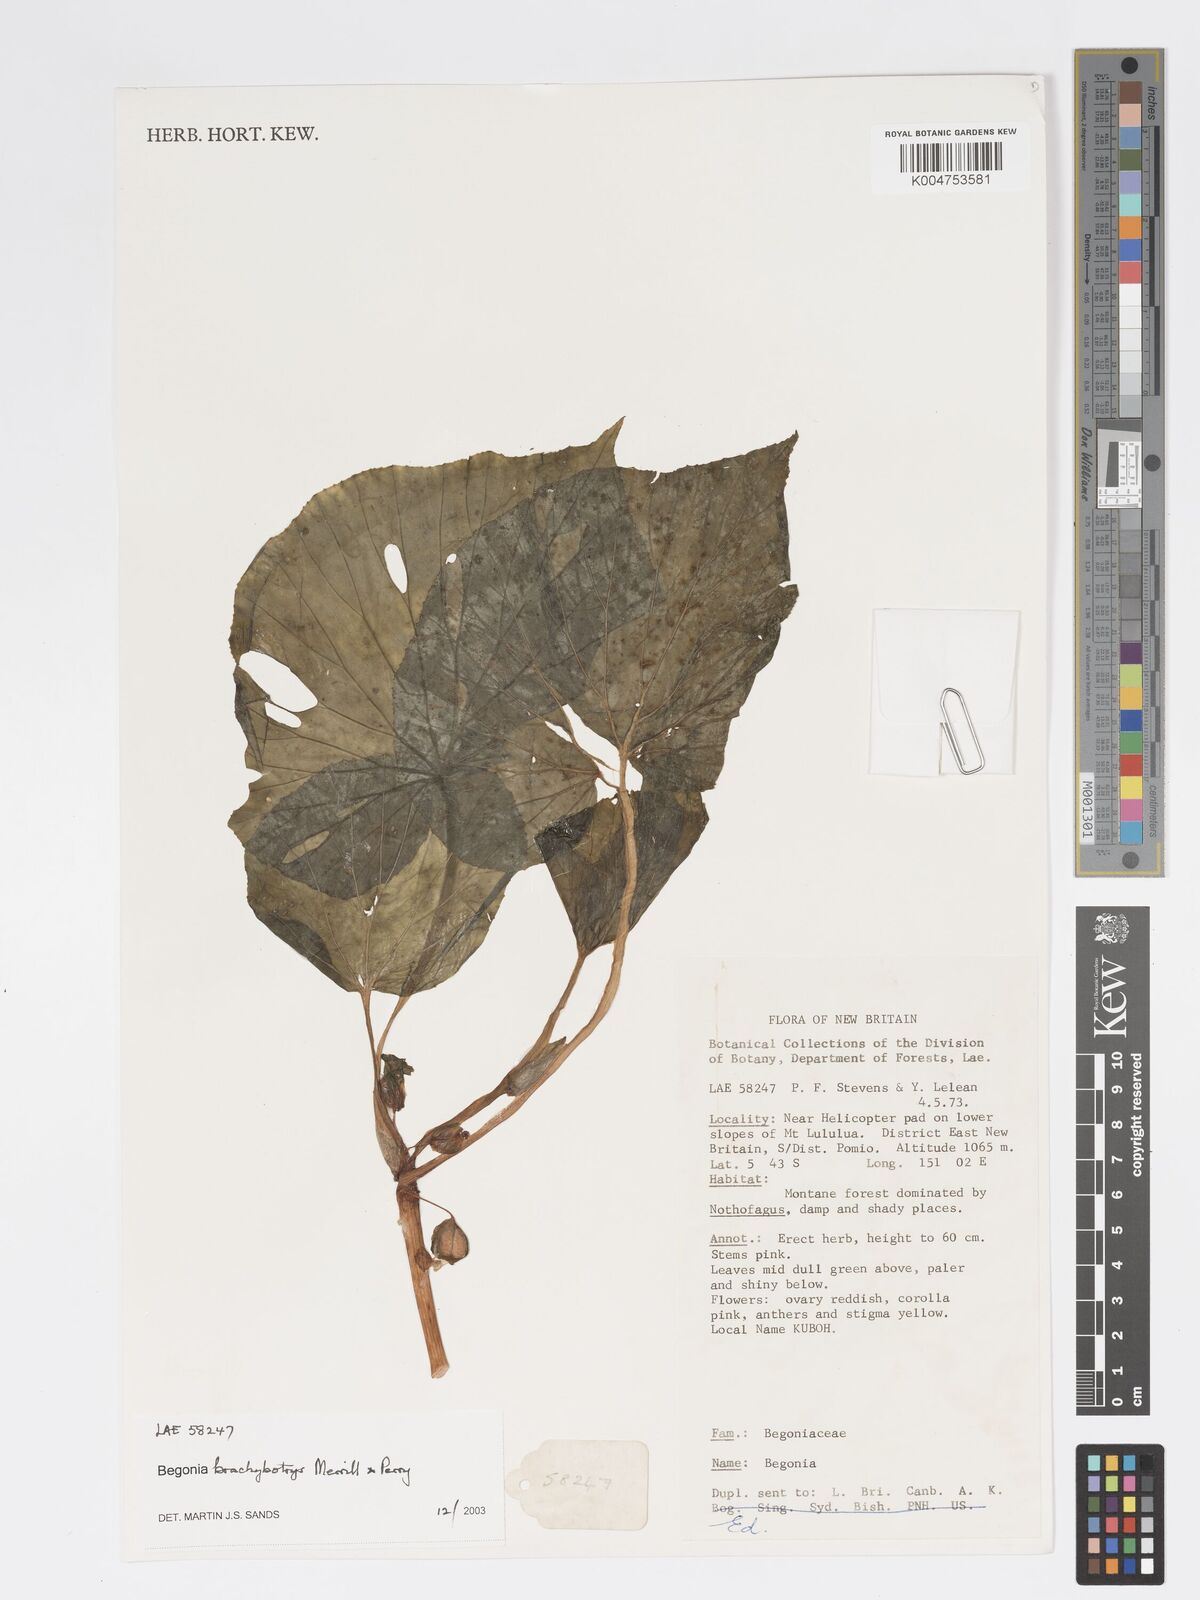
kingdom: Plantae
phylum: Tracheophyta
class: Magnoliopsida
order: Cucurbitales
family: Begoniaceae
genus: Begonia
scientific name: Begonia brachybotrys
